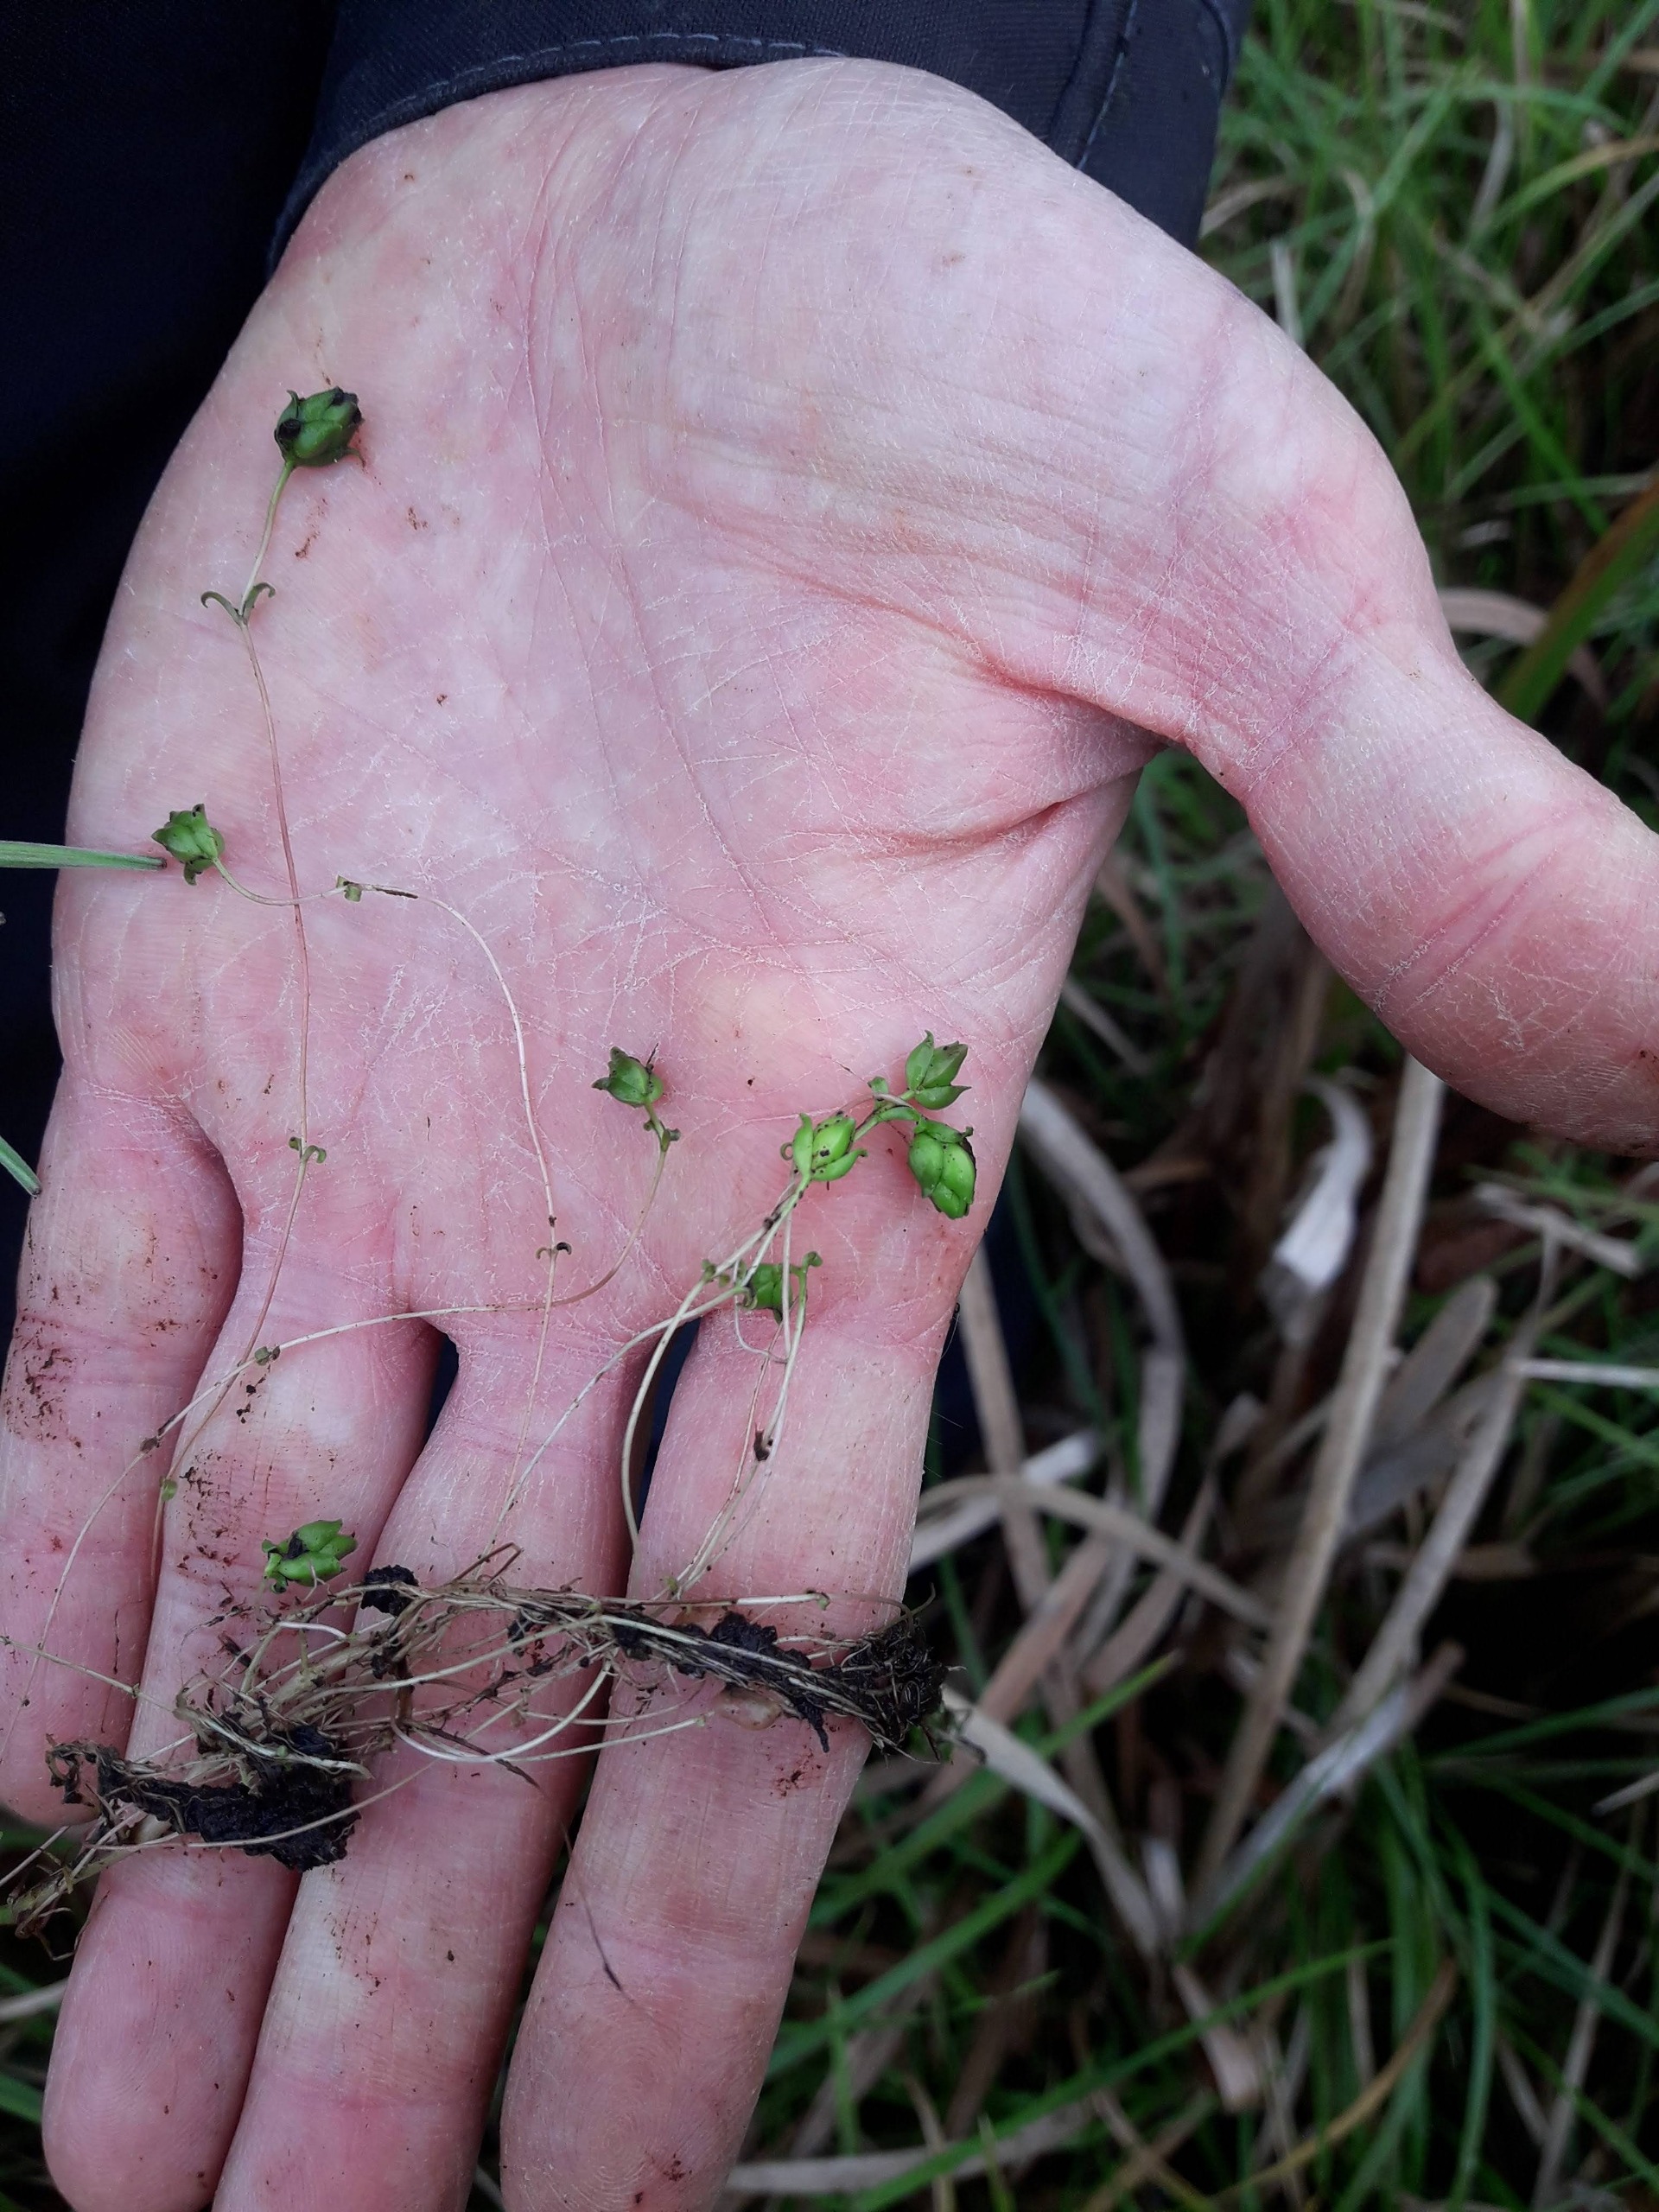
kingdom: Plantae
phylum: Tracheophyta
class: Magnoliopsida
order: Myrtales
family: Onagraceae
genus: Epilobium
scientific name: Epilobium palustre
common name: Kær-dueurt
